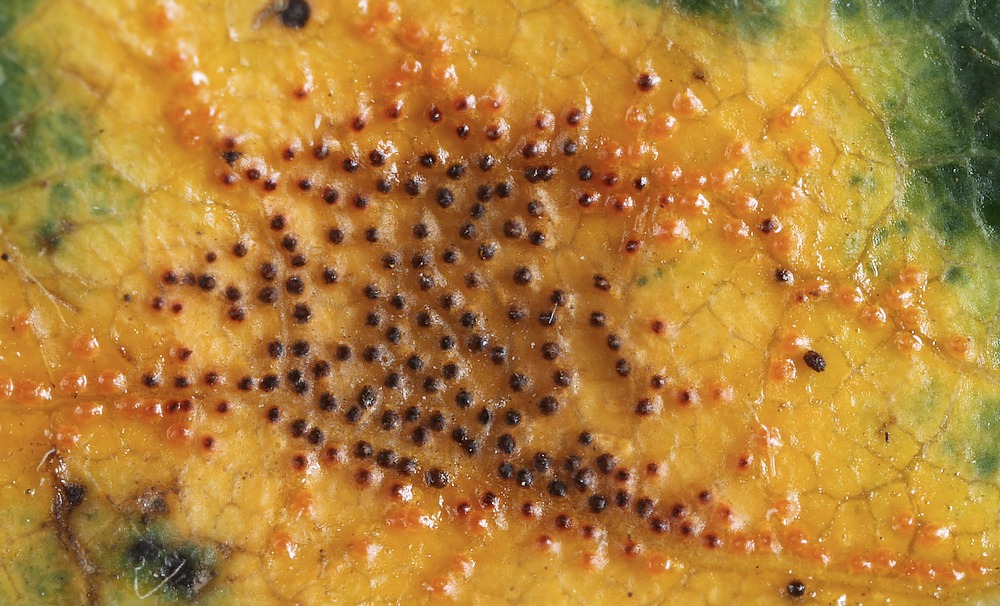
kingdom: Fungi
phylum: Basidiomycota
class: Pucciniomycetes
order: Pucciniales
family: Gymnosporangiaceae
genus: Gymnosporangium
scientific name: Gymnosporangium sabinae
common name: pæregitter-bævrerust
